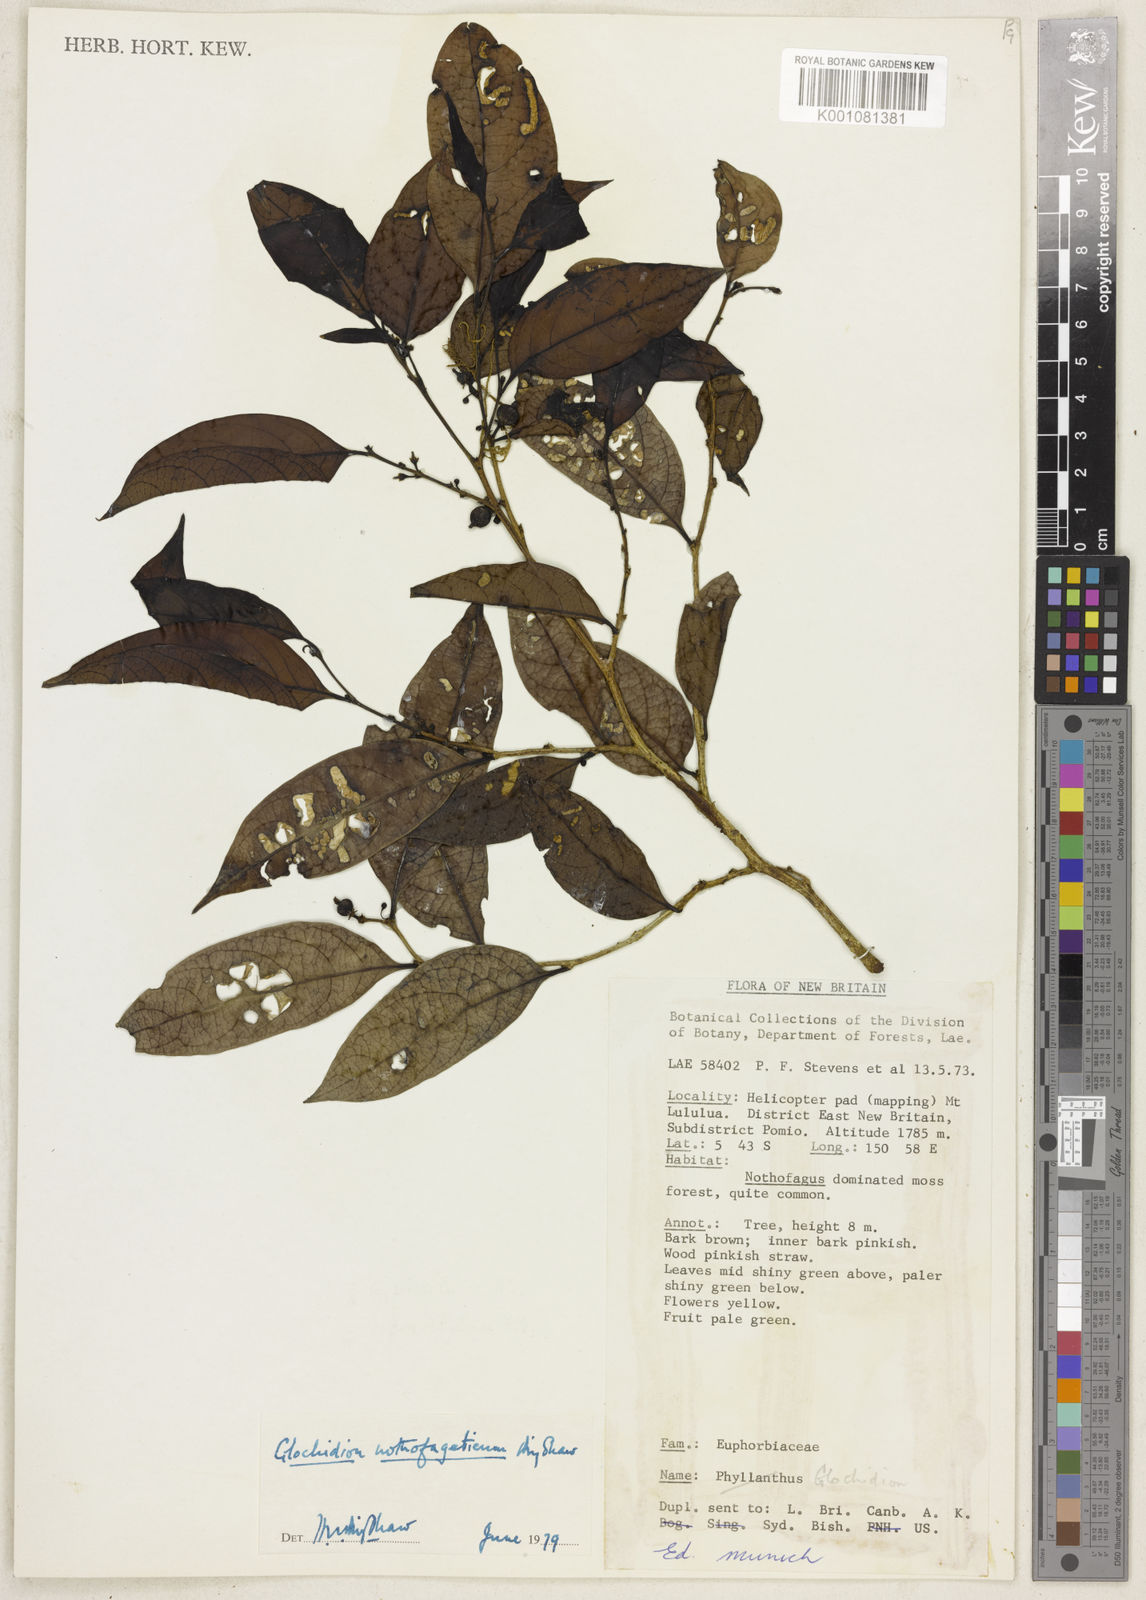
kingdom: Plantae
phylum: Tracheophyta
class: Magnoliopsida
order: Malpighiales
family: Phyllanthaceae
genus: Glochidion
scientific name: Glochidion nothofageticum
